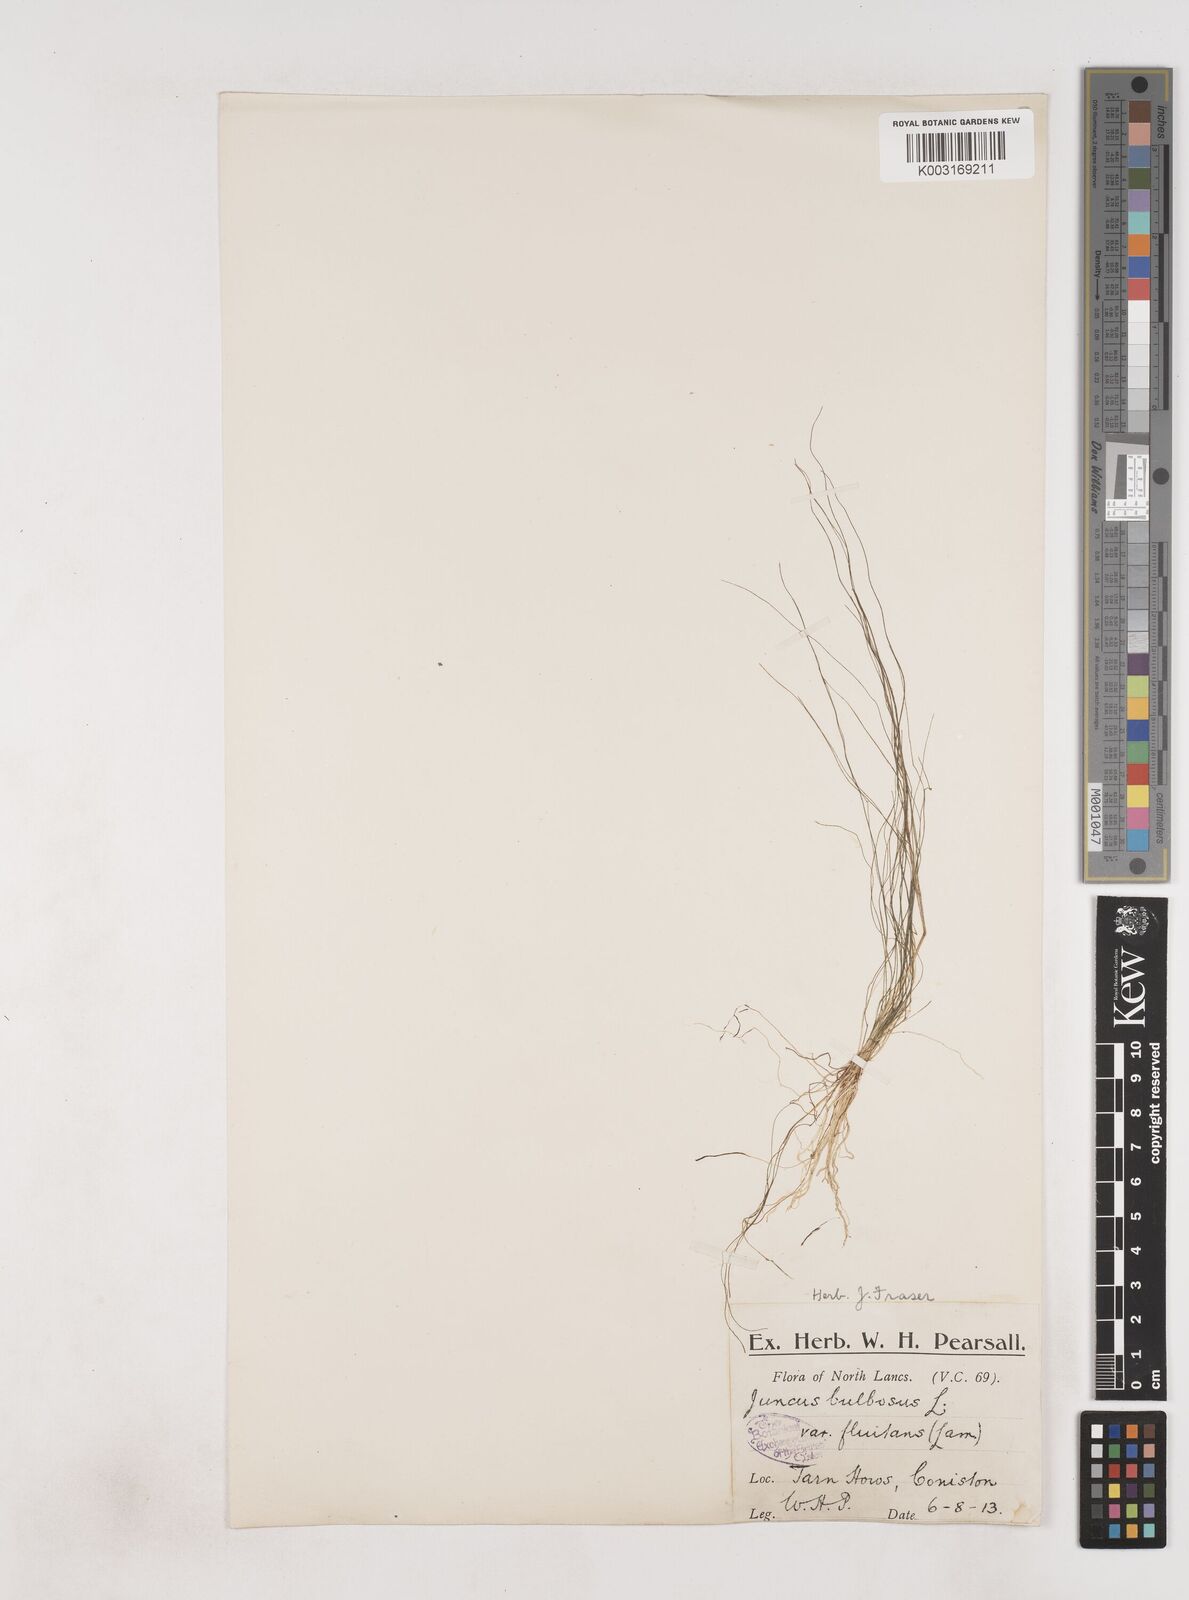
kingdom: Plantae
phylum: Tracheophyta
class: Liliopsida
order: Poales
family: Juncaceae
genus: Juncus
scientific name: Juncus bulbosus
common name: Bulbous rush
